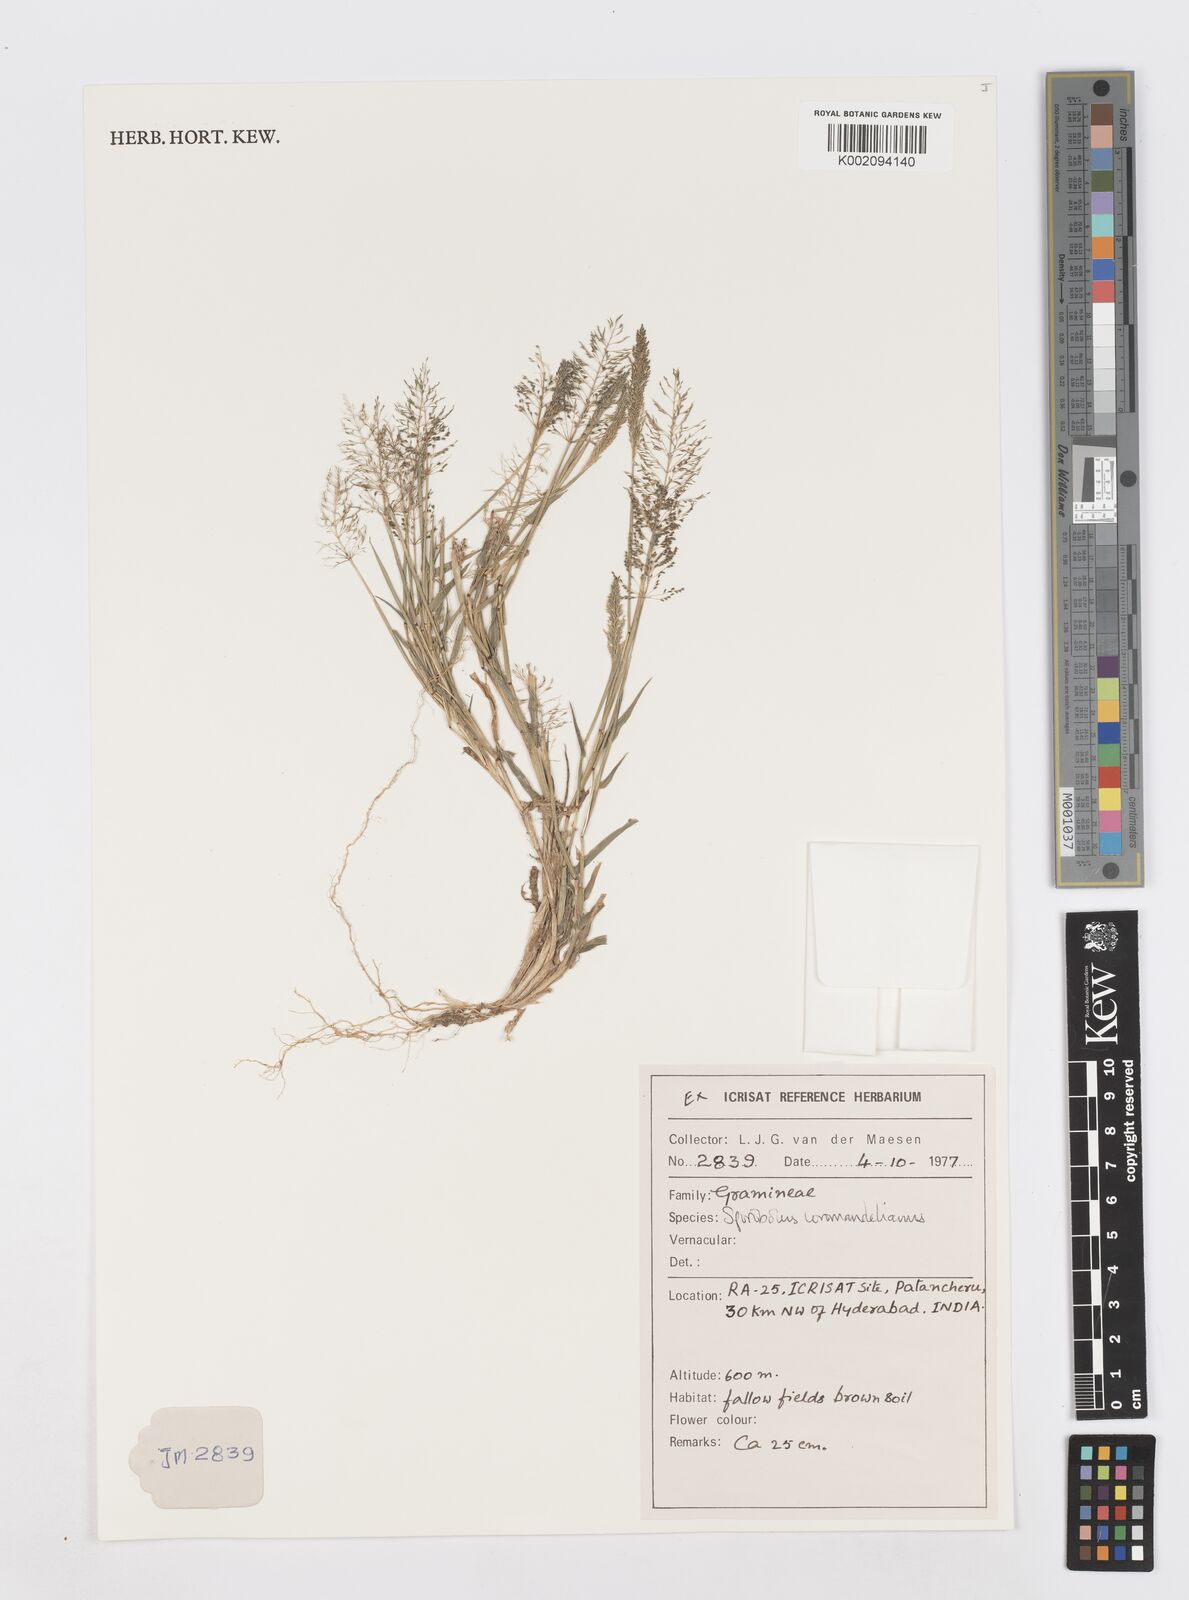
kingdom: Plantae
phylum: Tracheophyta
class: Liliopsida
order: Poales
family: Poaceae
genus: Sporobolus
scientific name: Sporobolus coromandelianus
